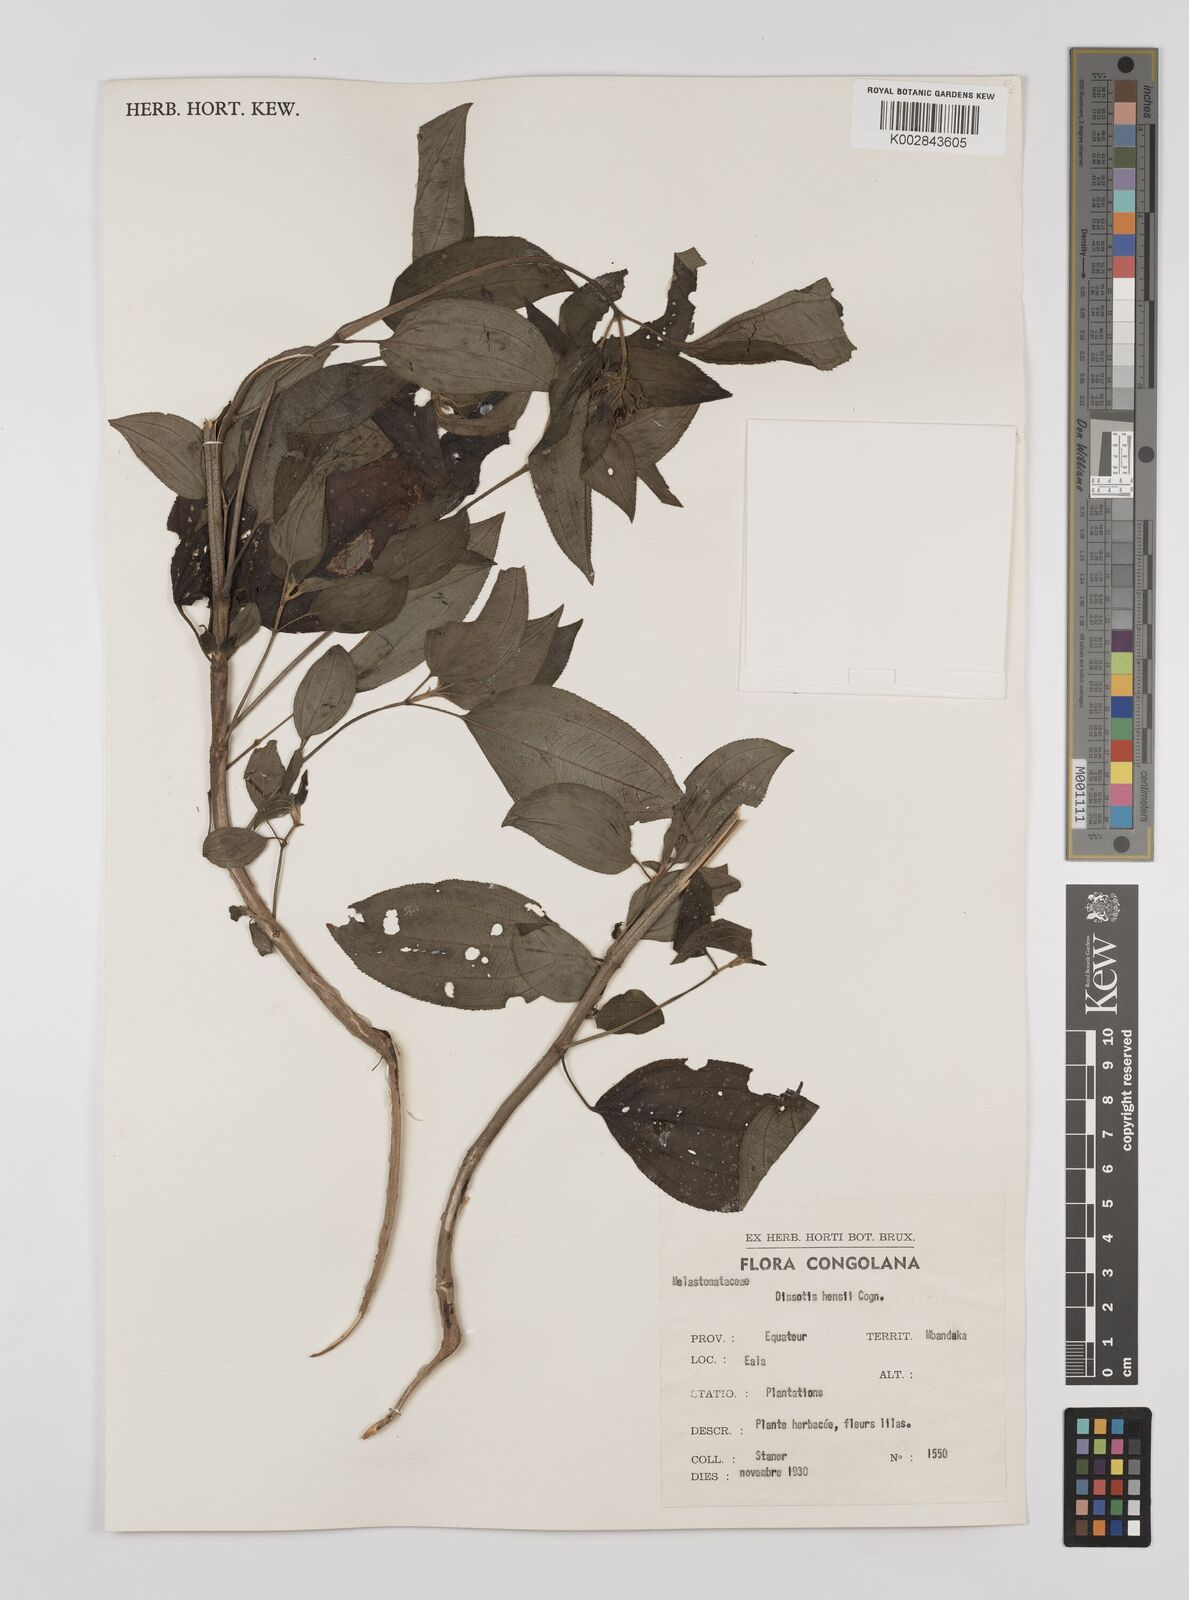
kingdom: Plantae
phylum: Tracheophyta
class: Magnoliopsida
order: Myrtales
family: Melastomataceae
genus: Dupineta
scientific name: Dupineta hensii
